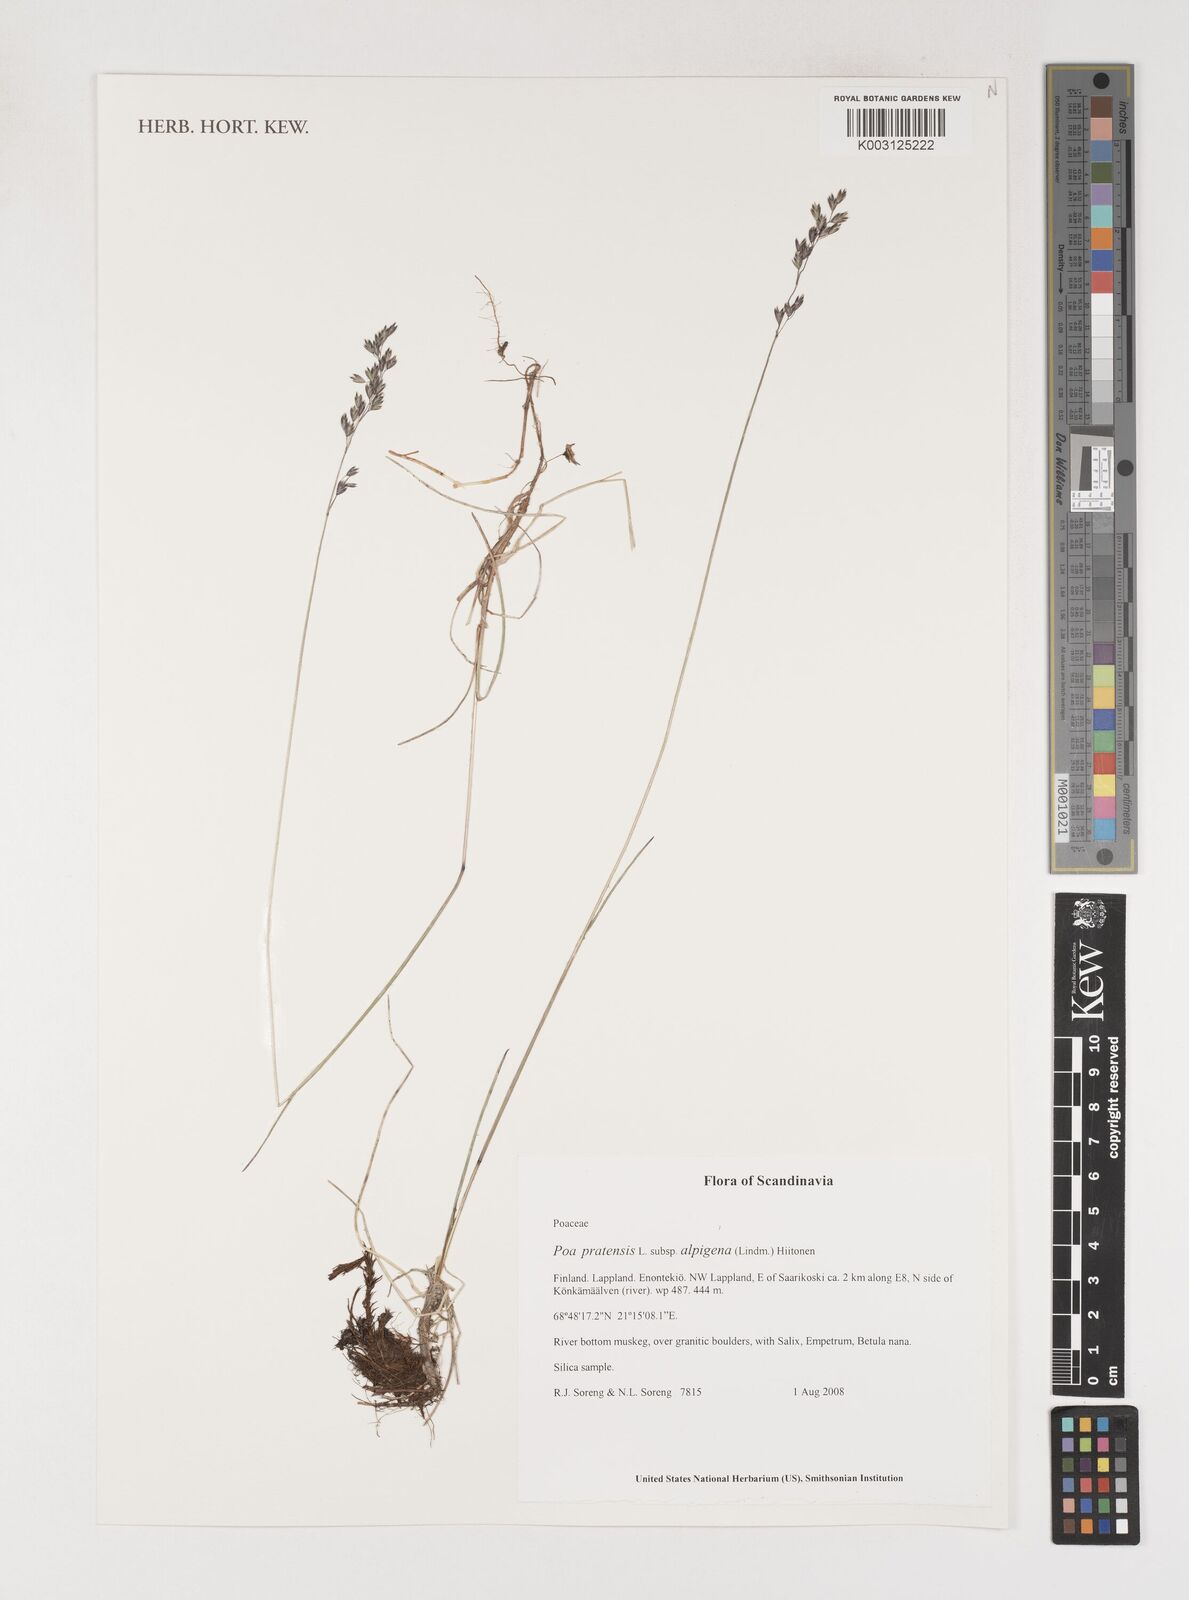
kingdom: Plantae
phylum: Tracheophyta
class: Liliopsida
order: Poales
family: Poaceae
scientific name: Poaceae
